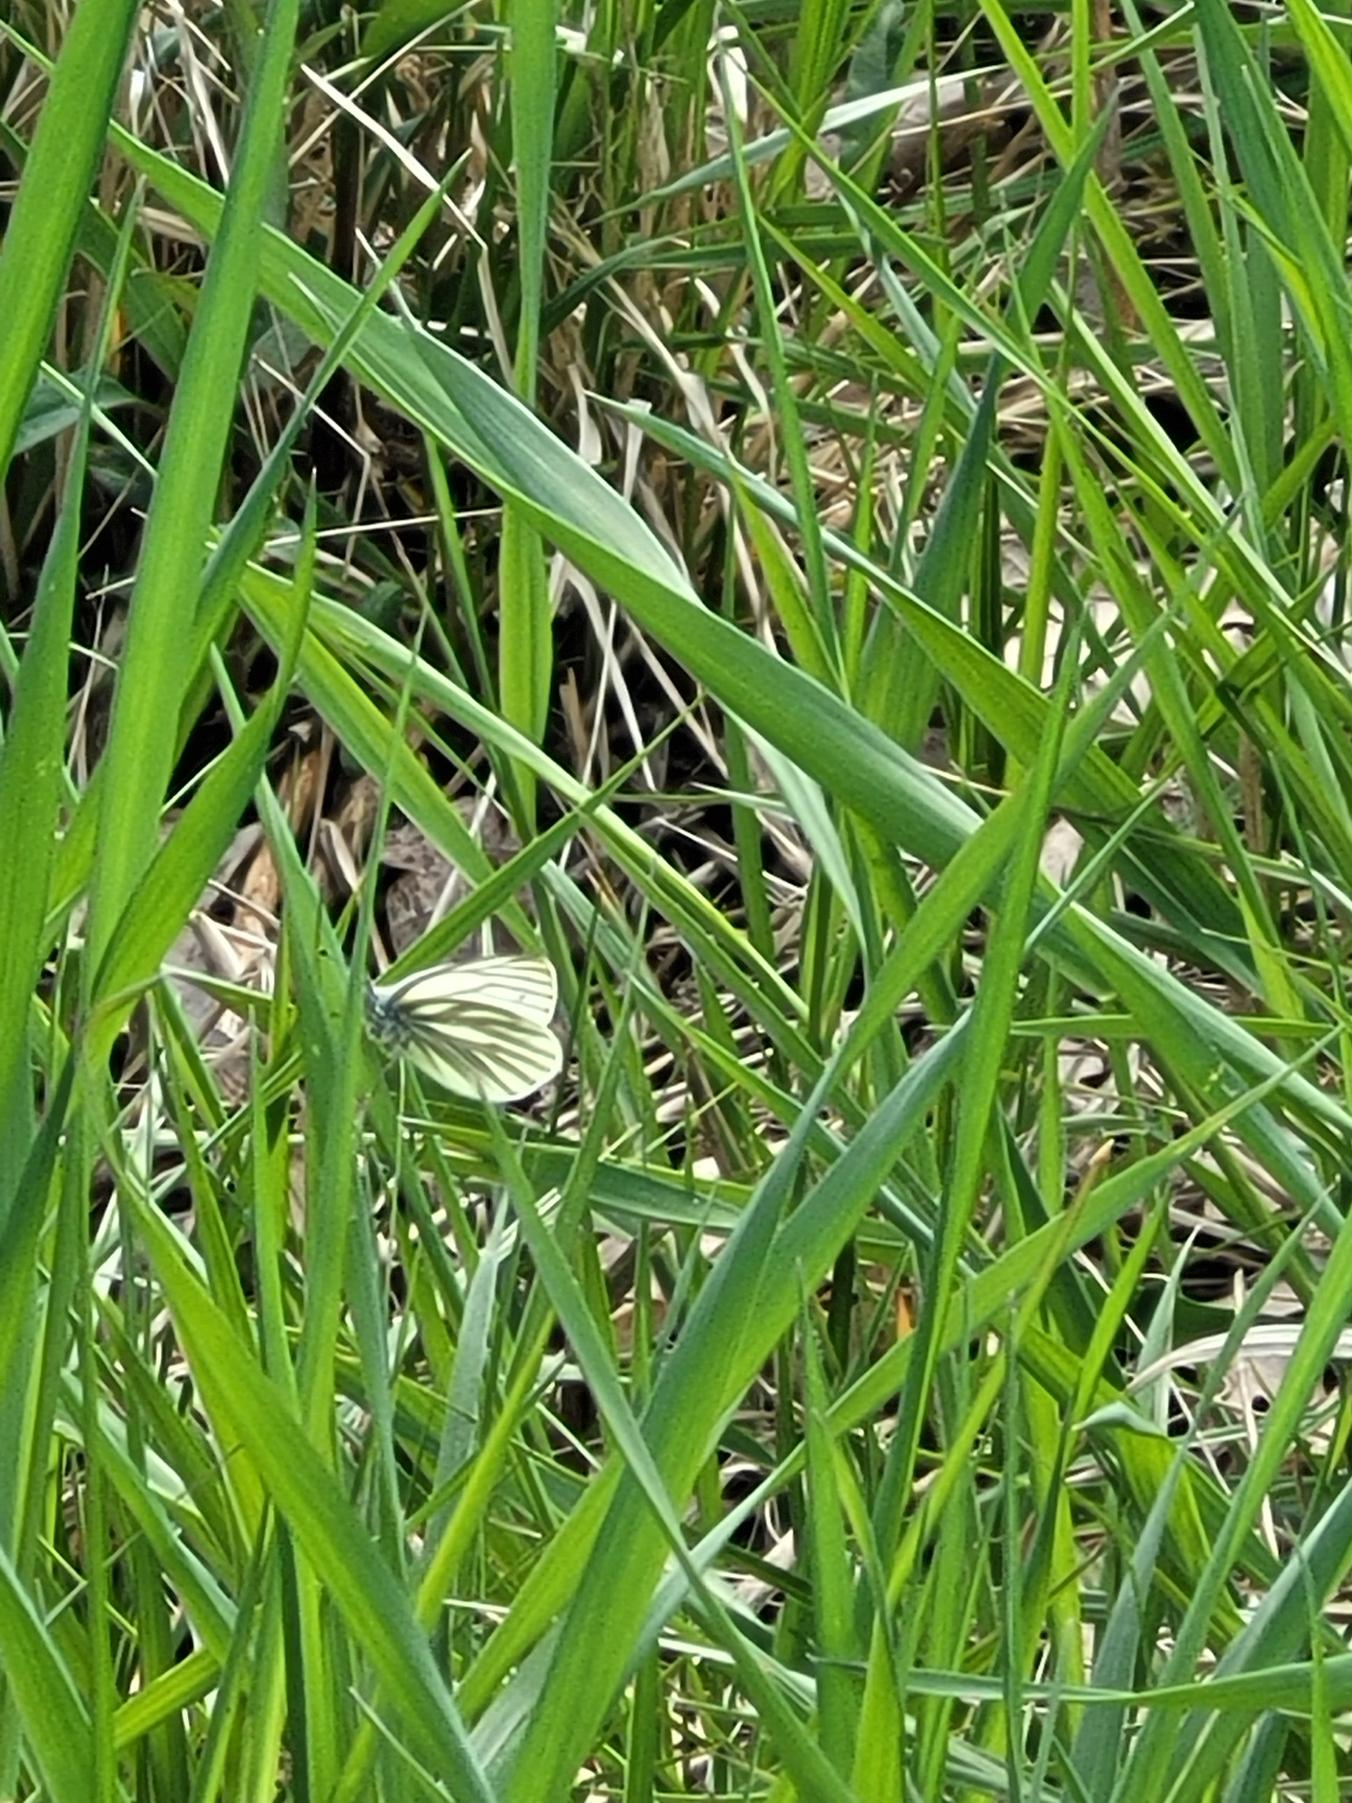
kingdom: Animalia
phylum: Arthropoda
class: Insecta
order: Lepidoptera
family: Pieridae
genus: Pieris
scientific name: Pieris napi
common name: Grønåret kålsommerfugl
